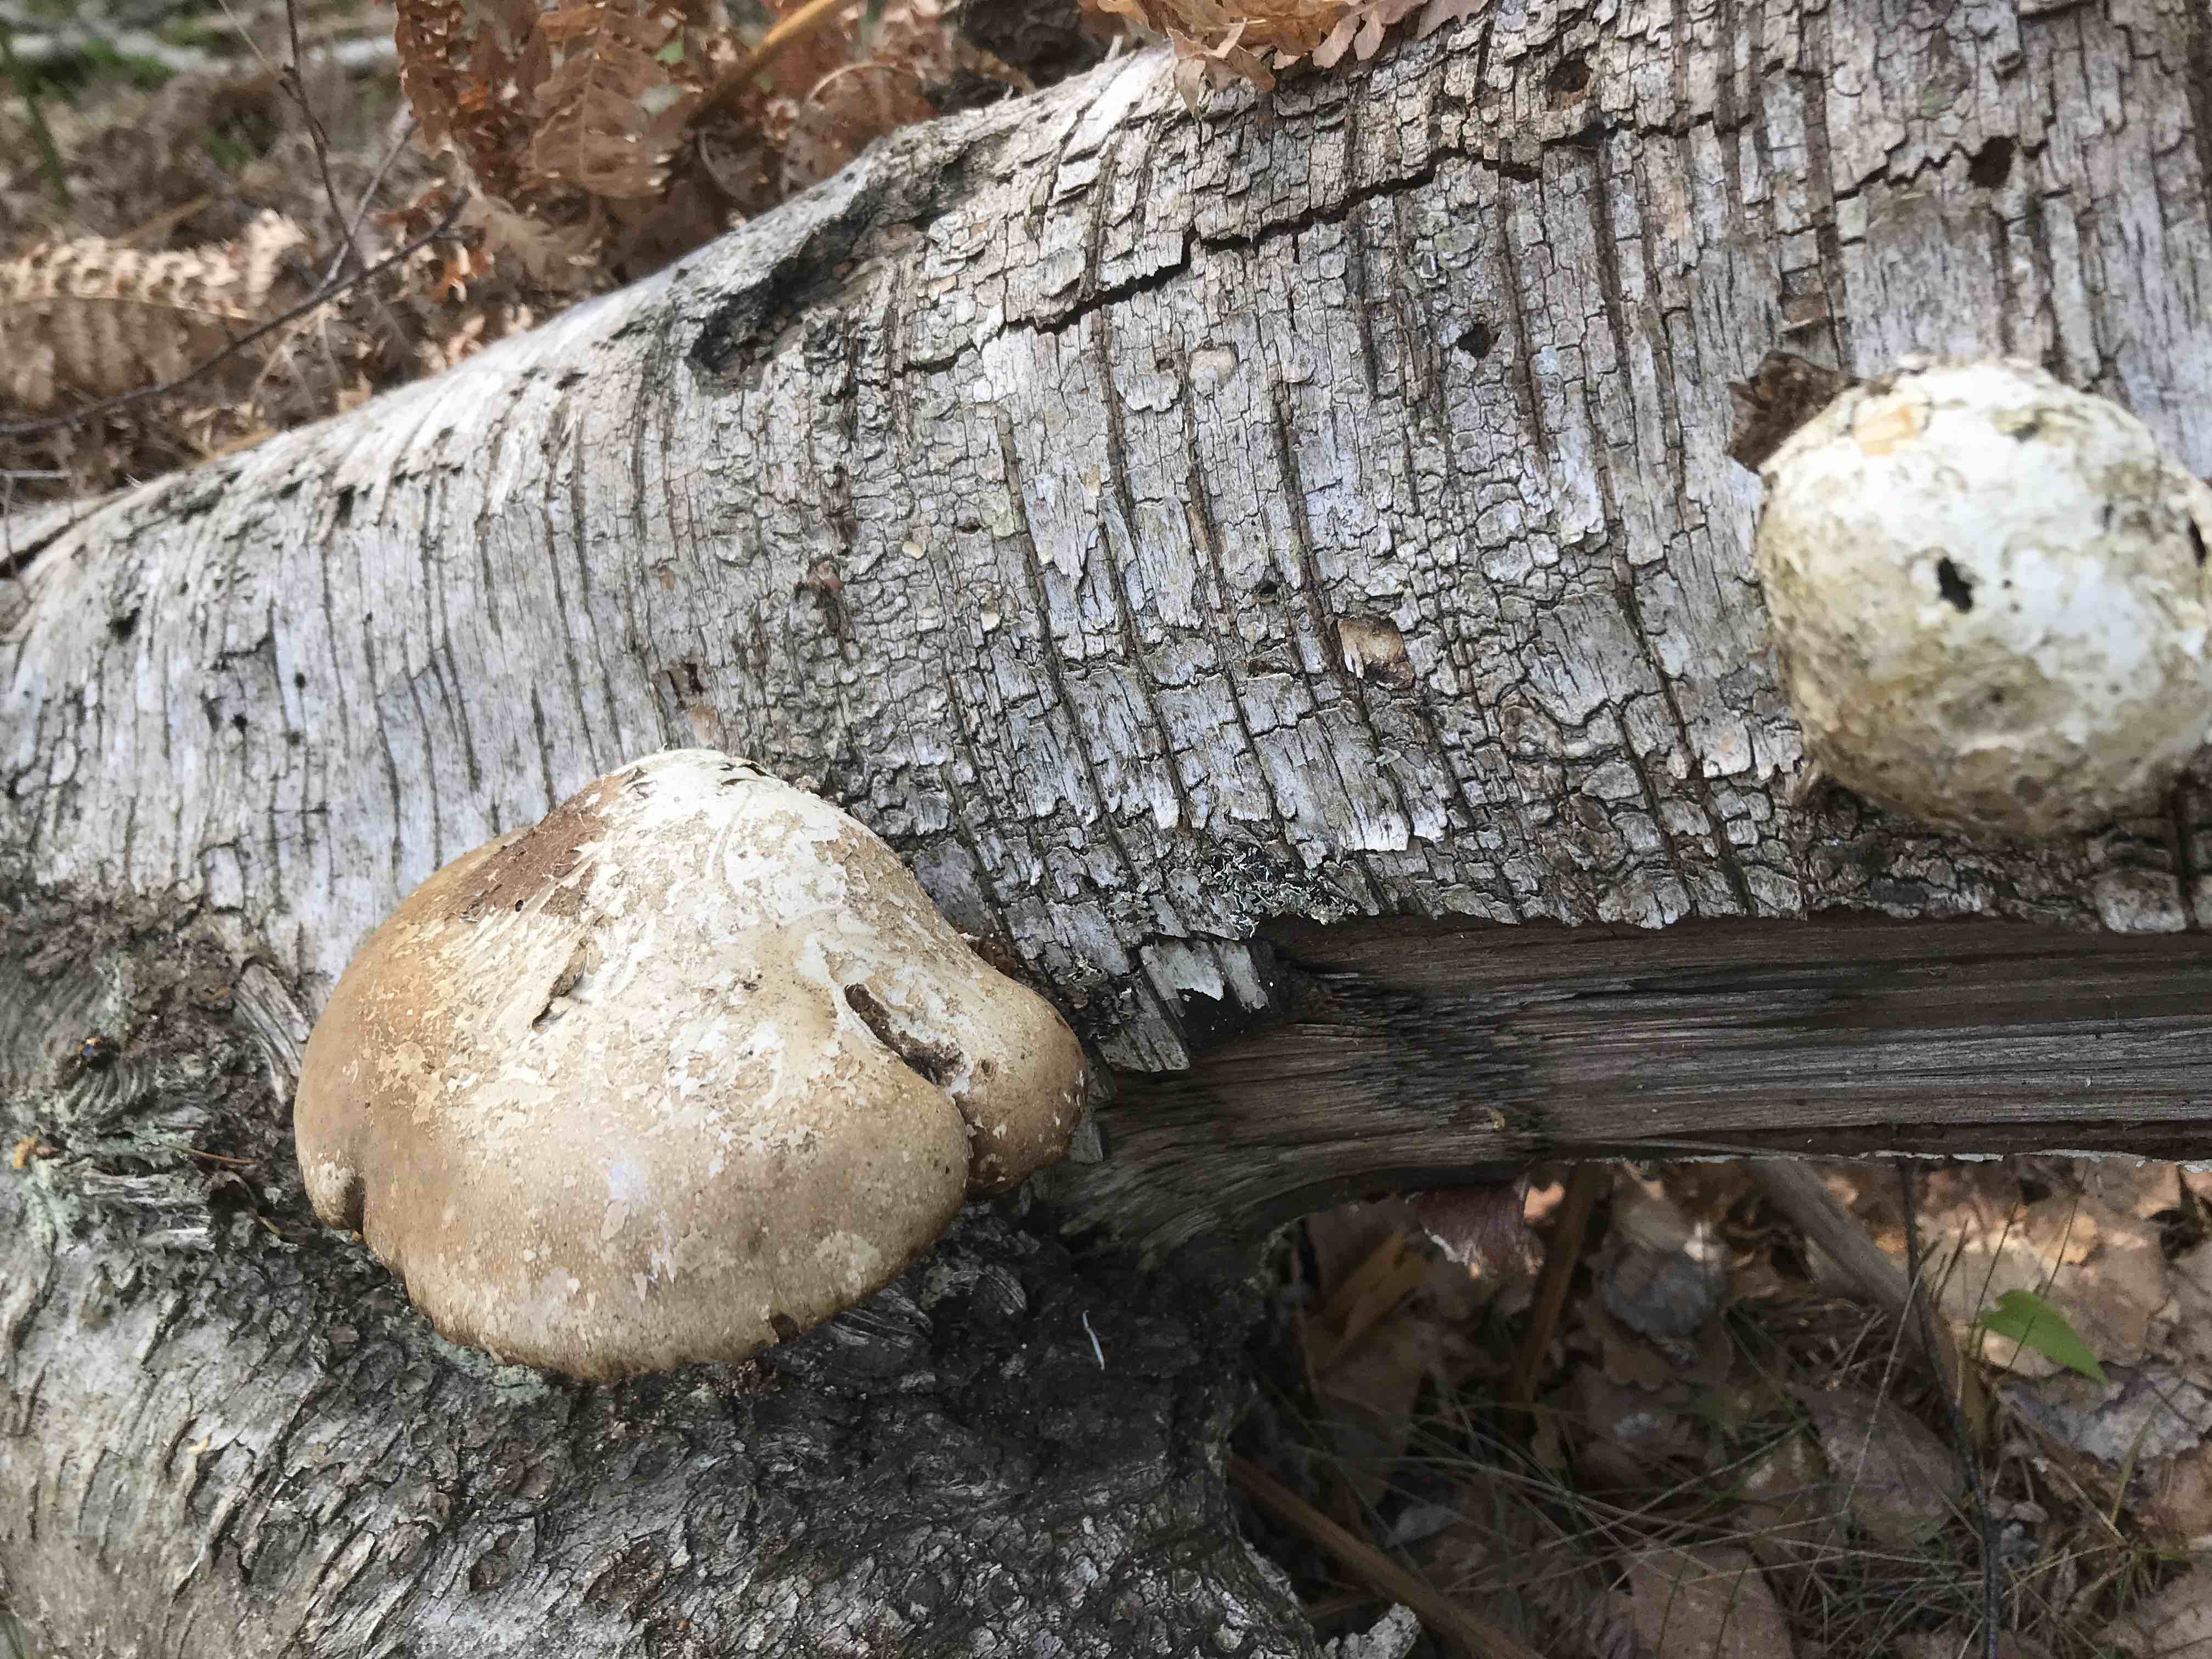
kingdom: Fungi
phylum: Basidiomycota
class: Agaricomycetes
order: Polyporales
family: Fomitopsidaceae
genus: Fomitopsis
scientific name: Fomitopsis betulina
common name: birkeporesvamp
